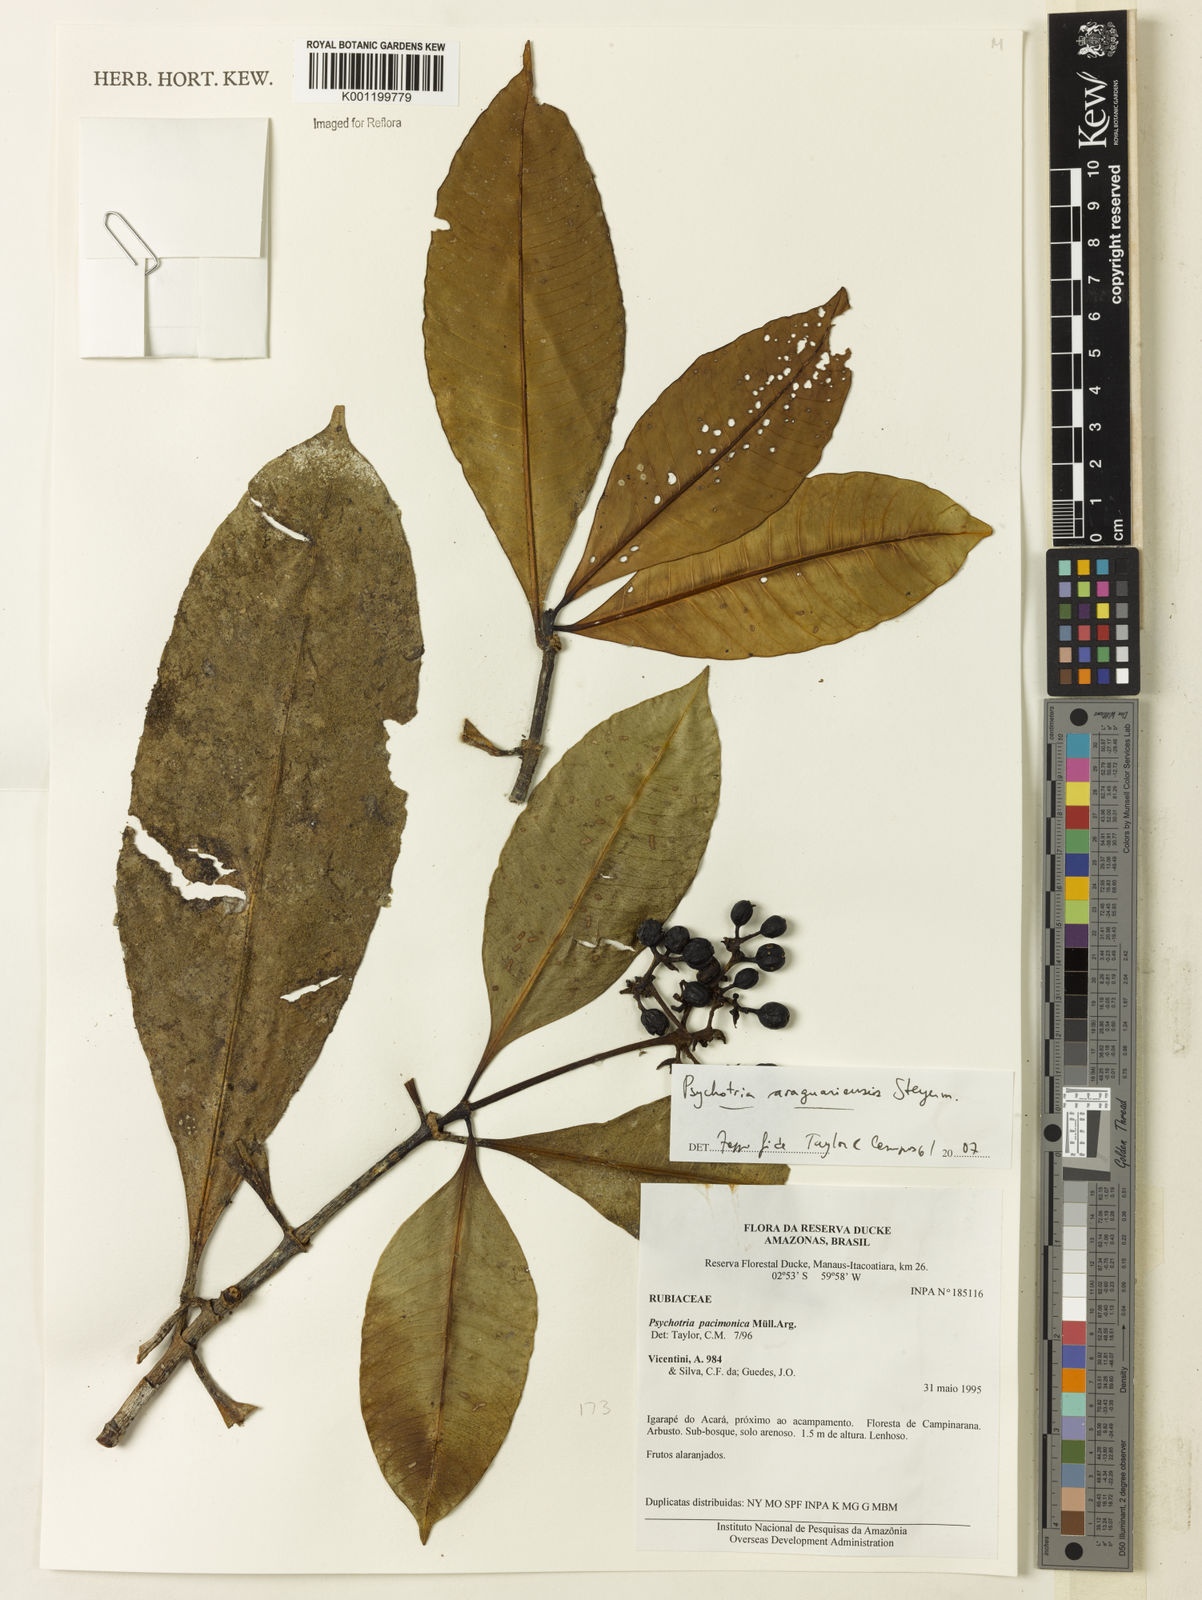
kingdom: Plantae
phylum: Tracheophyta
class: Magnoliopsida
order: Gentianales
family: Rubiaceae
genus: Carapichea
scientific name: Carapichea araguariensis
